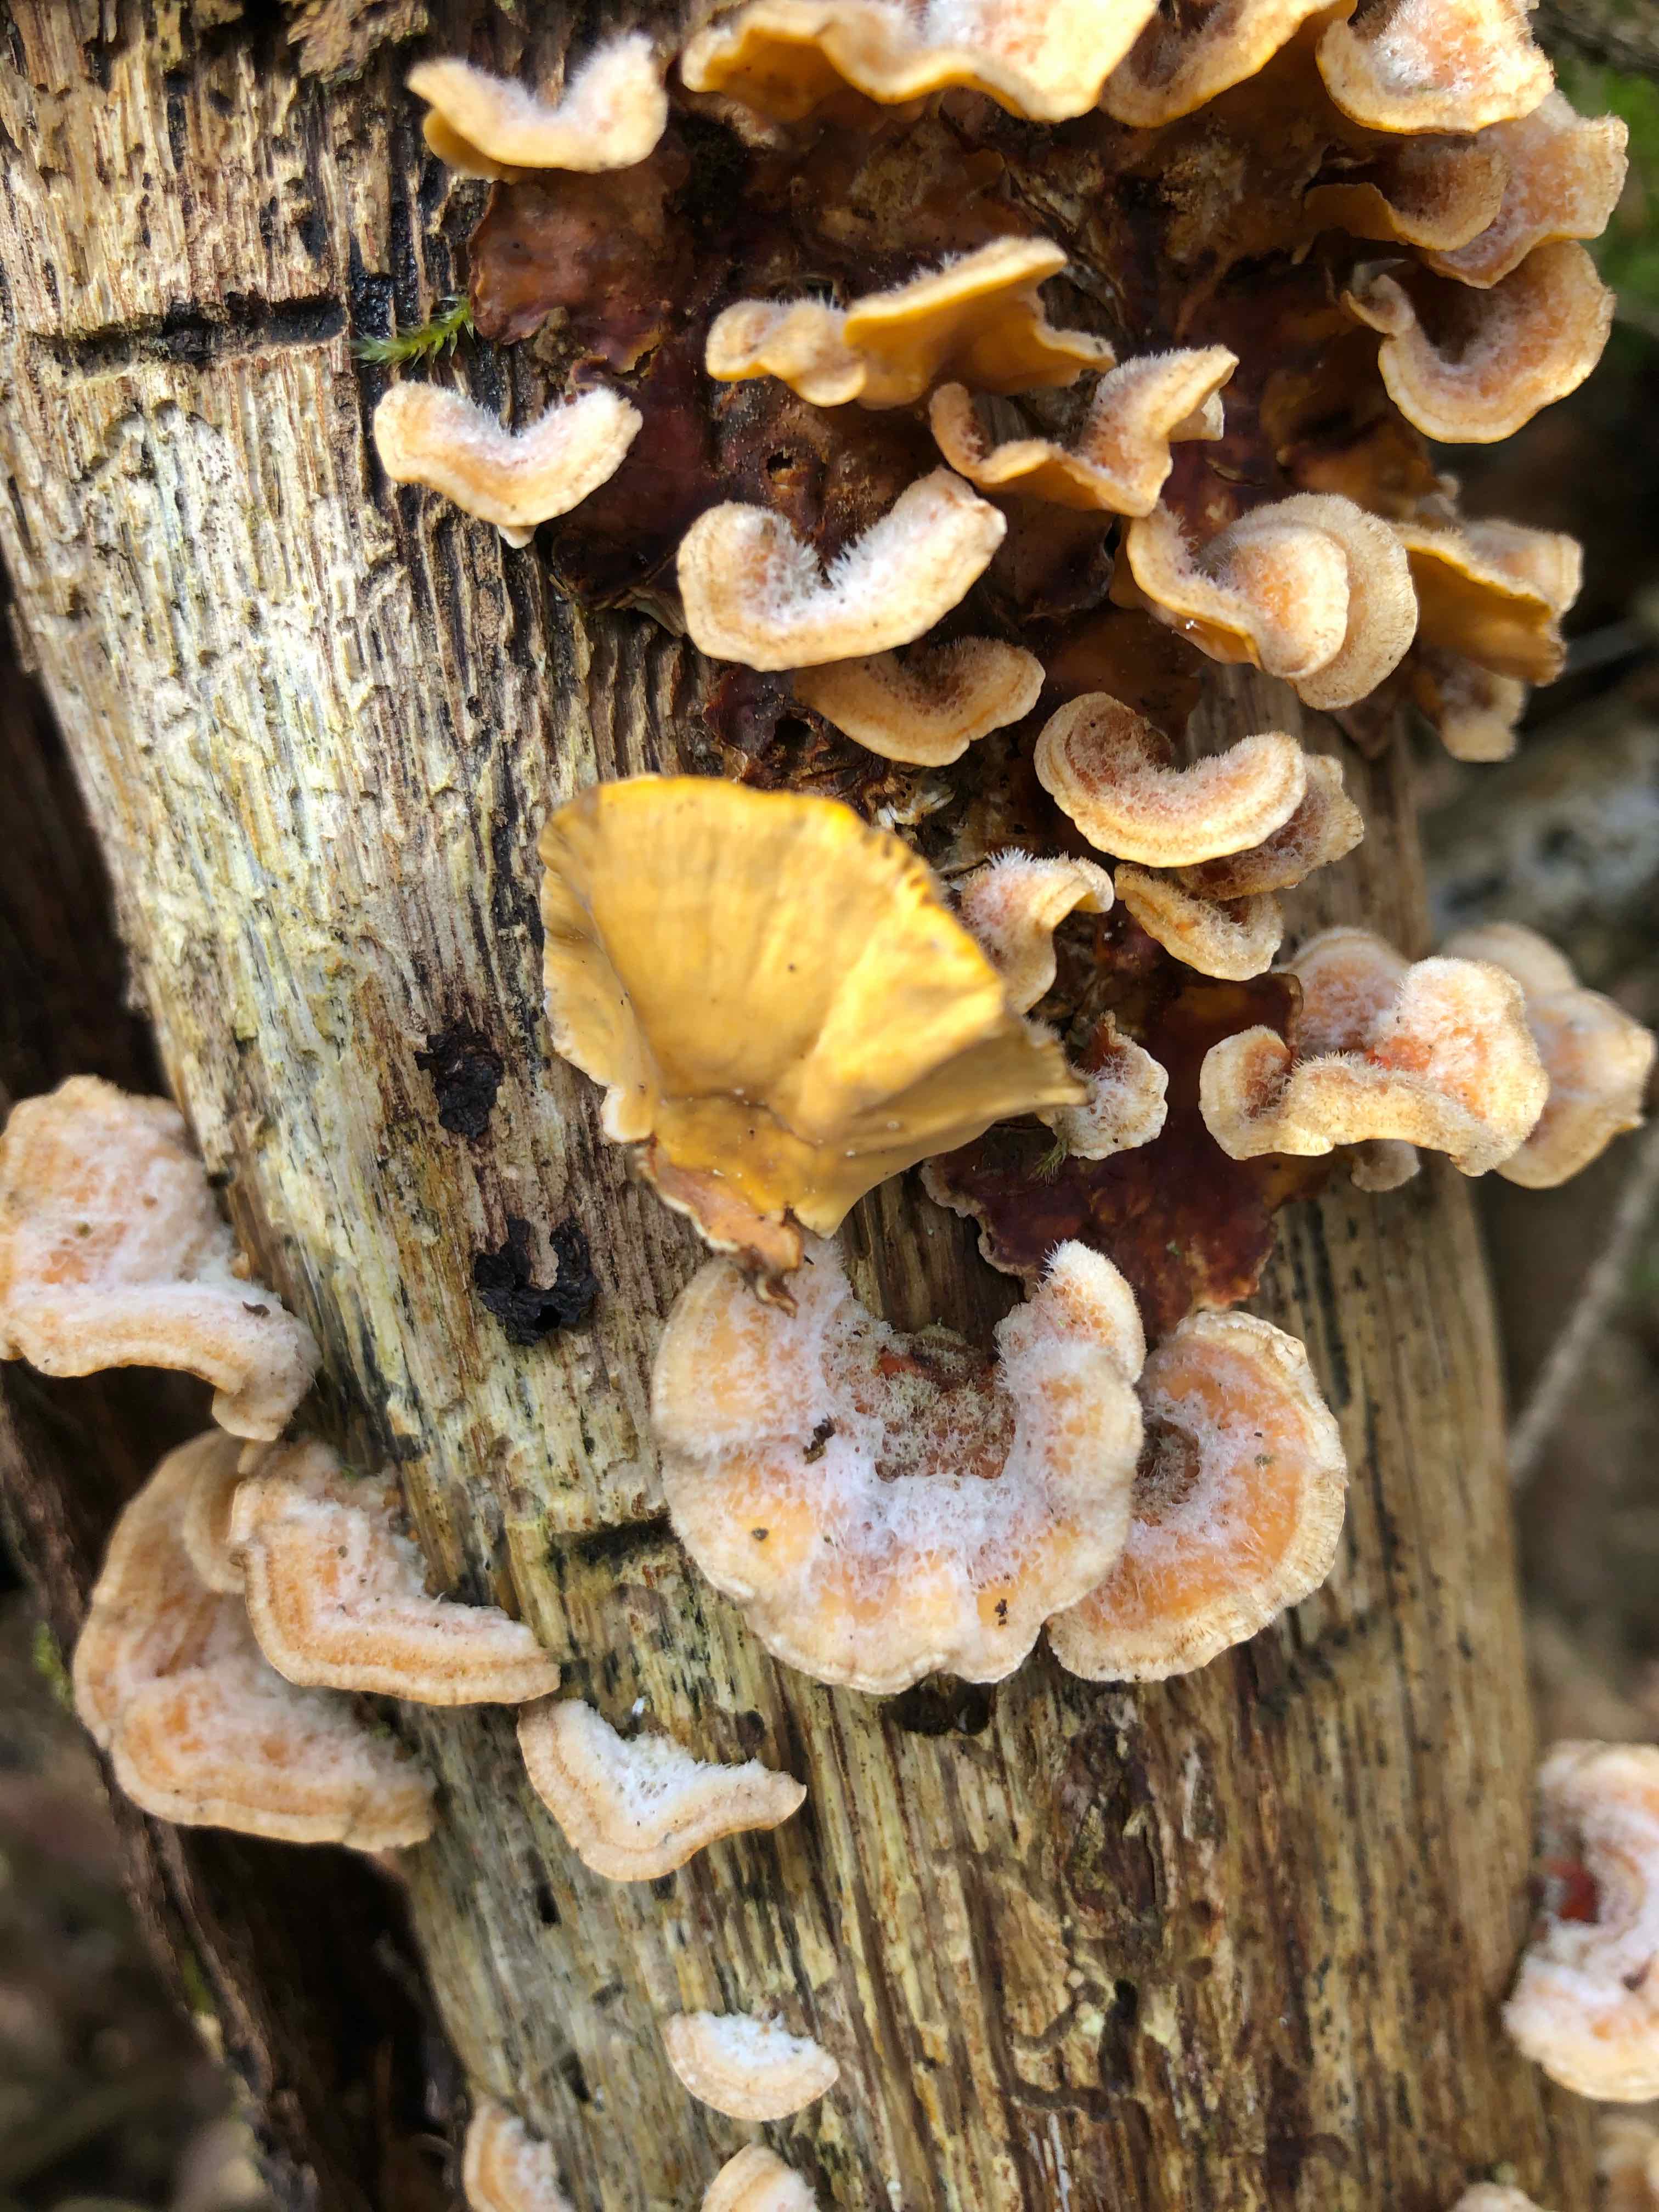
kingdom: Fungi
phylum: Basidiomycota
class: Agaricomycetes
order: Russulales
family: Stereaceae
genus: Stereum
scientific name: Stereum hirsutum
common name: håret lædersvamp
